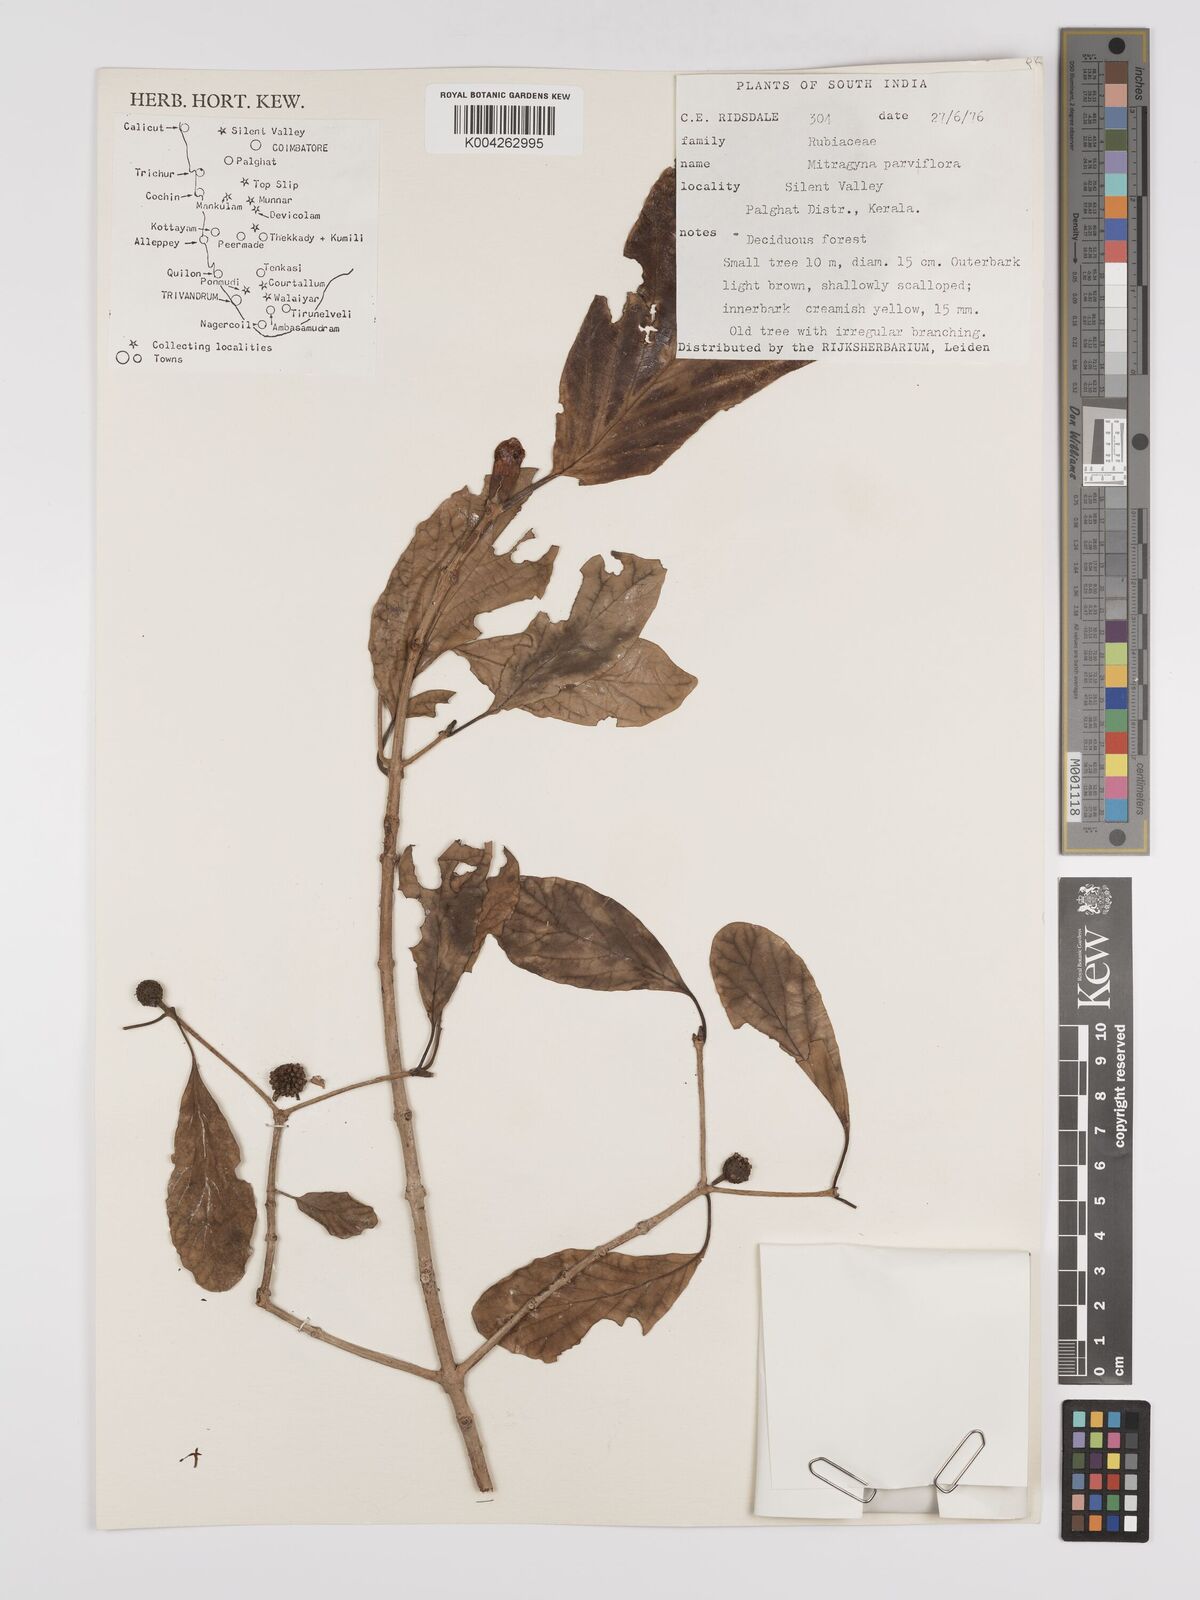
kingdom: Plantae
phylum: Tracheophyta
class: Magnoliopsida
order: Gentianales
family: Rubiaceae
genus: Mitragyna
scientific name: Mitragyna parvifolia
